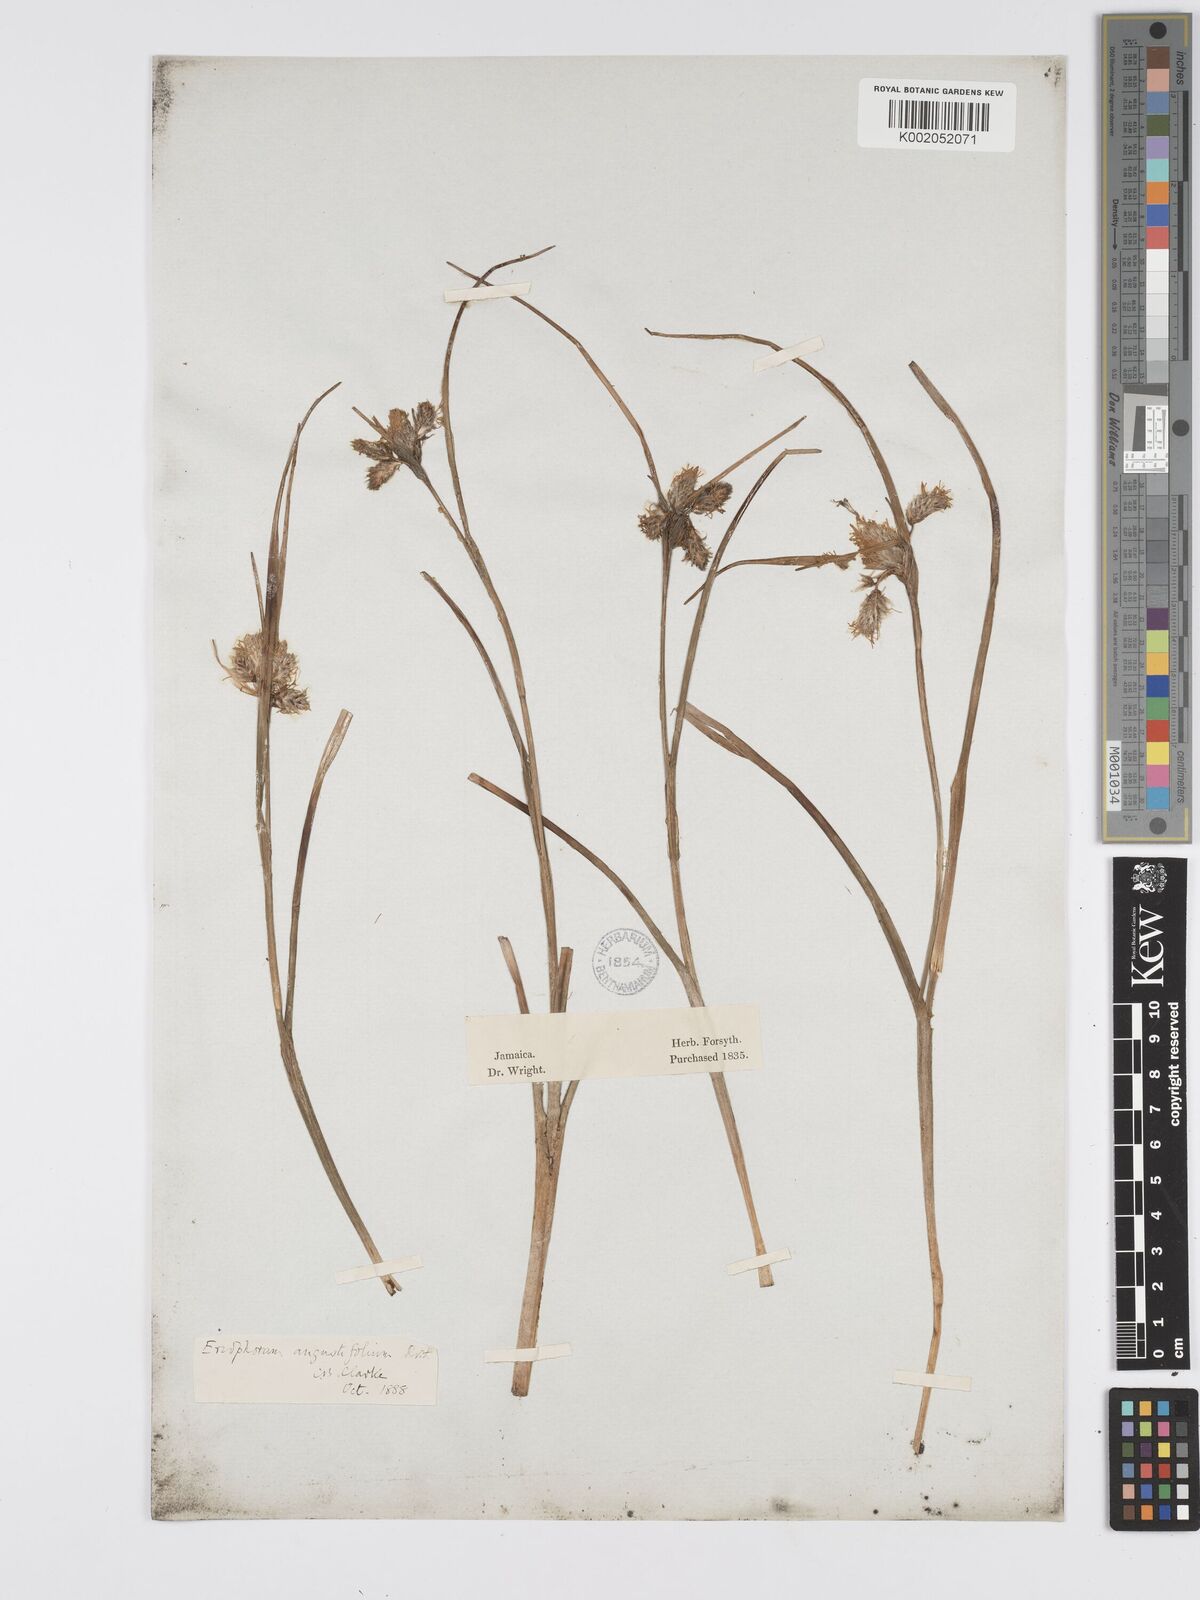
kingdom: Plantae
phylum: Tracheophyta
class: Liliopsida
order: Poales
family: Cyperaceae
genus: Eriophorum
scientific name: Eriophorum angustifolium
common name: Common cottongrass
